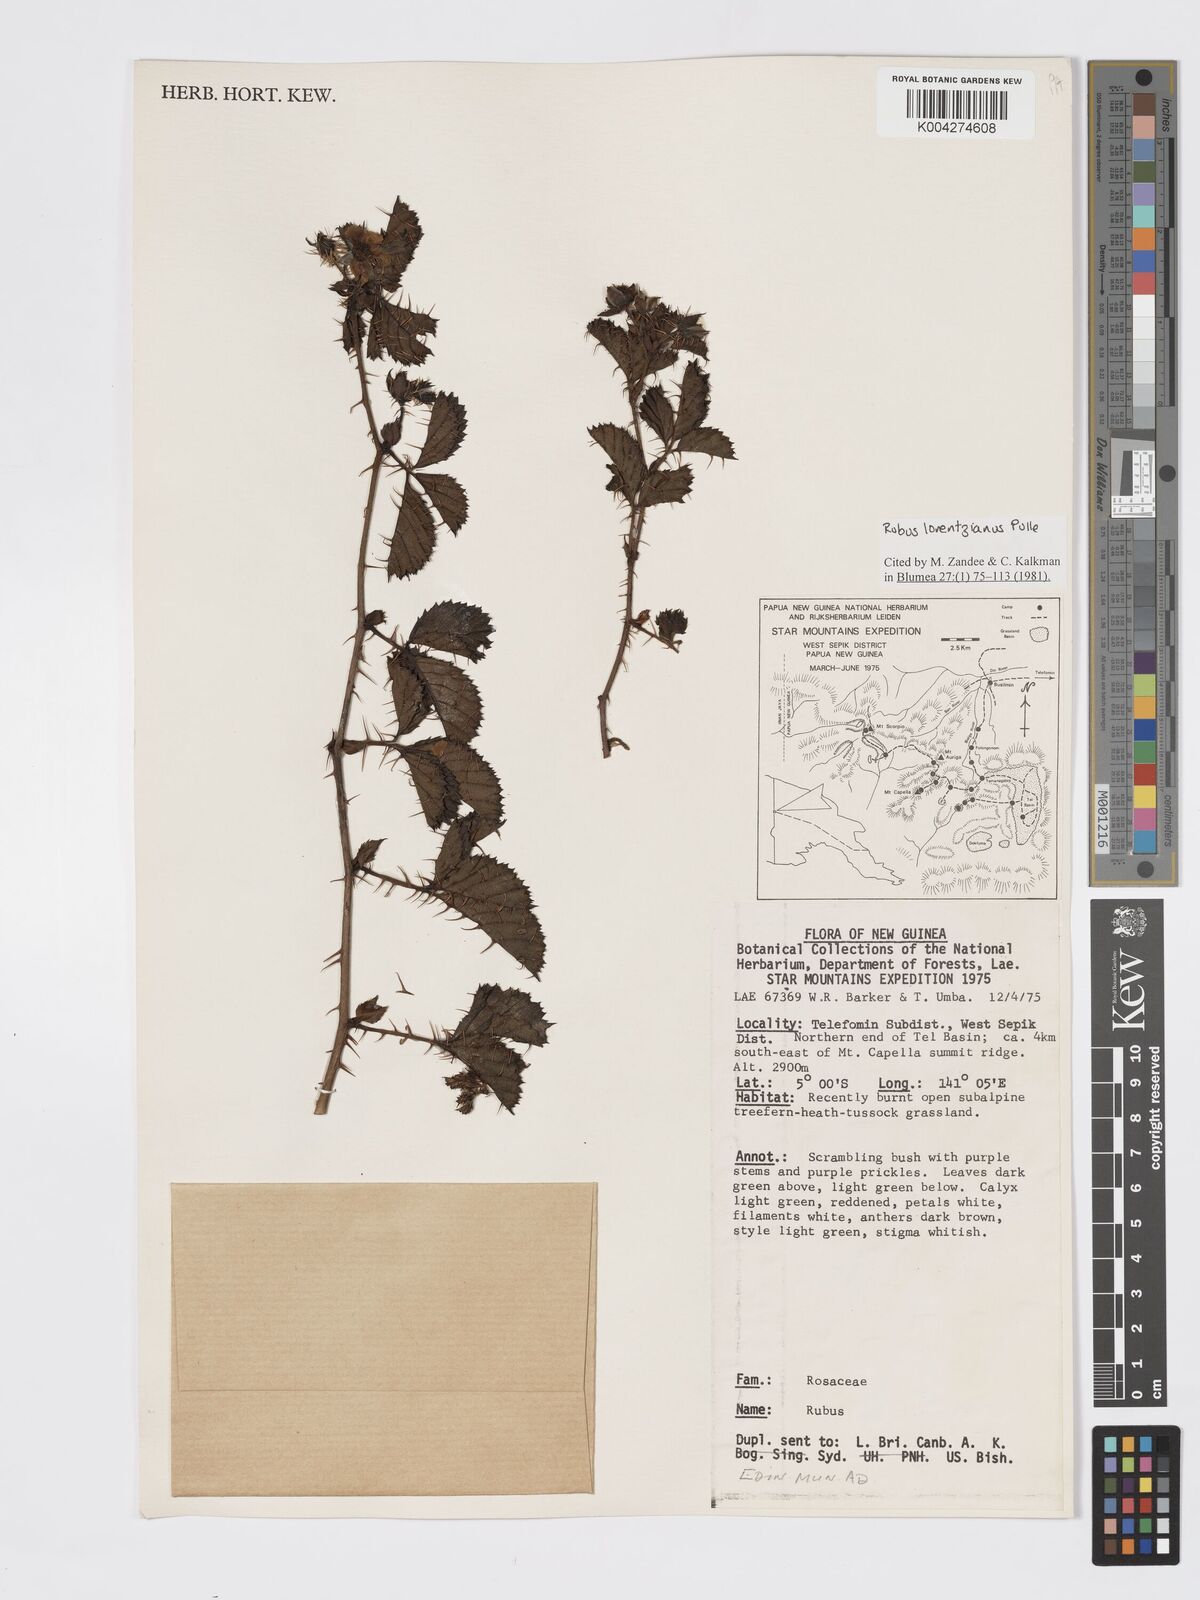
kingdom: Plantae
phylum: Tracheophyta
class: Magnoliopsida
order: Rosales
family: Rosaceae
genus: Rubus
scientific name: Rubus lorentzianus
